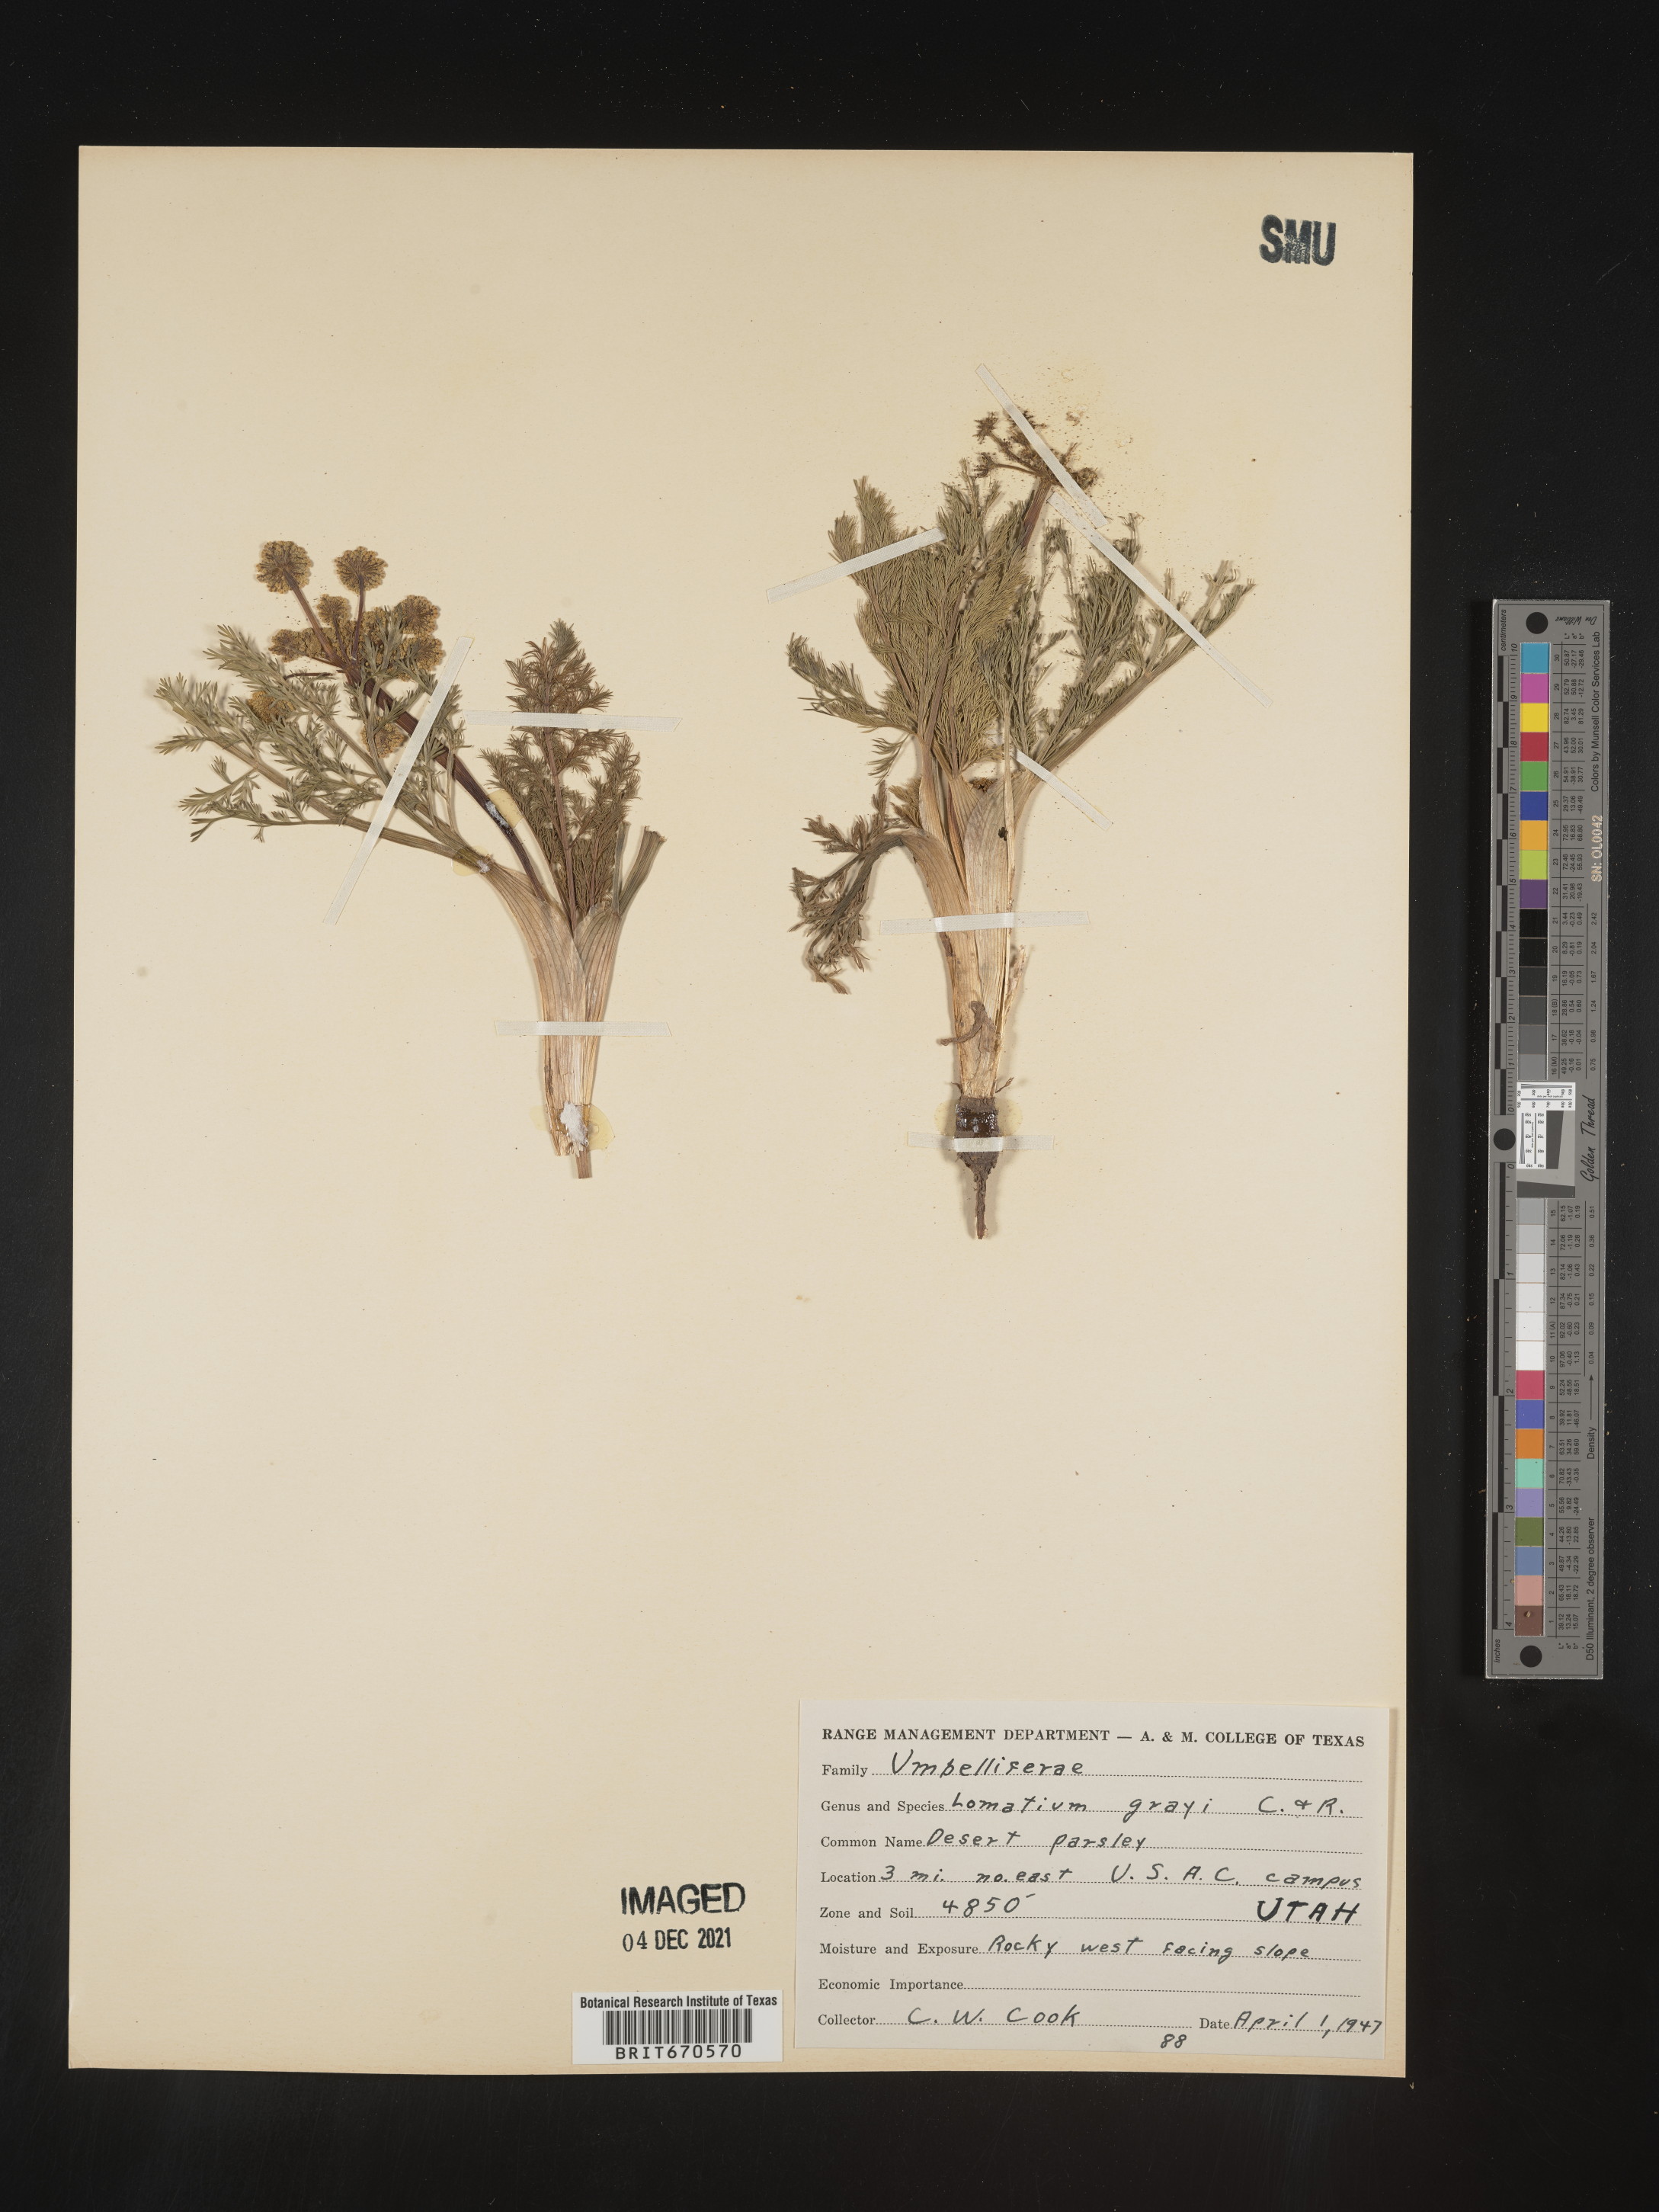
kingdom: Plantae
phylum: Tracheophyta
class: Magnoliopsida
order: Apiales
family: Apiaceae
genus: Lomatium
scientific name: Lomatium grayi
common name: Milfoil lomatium
